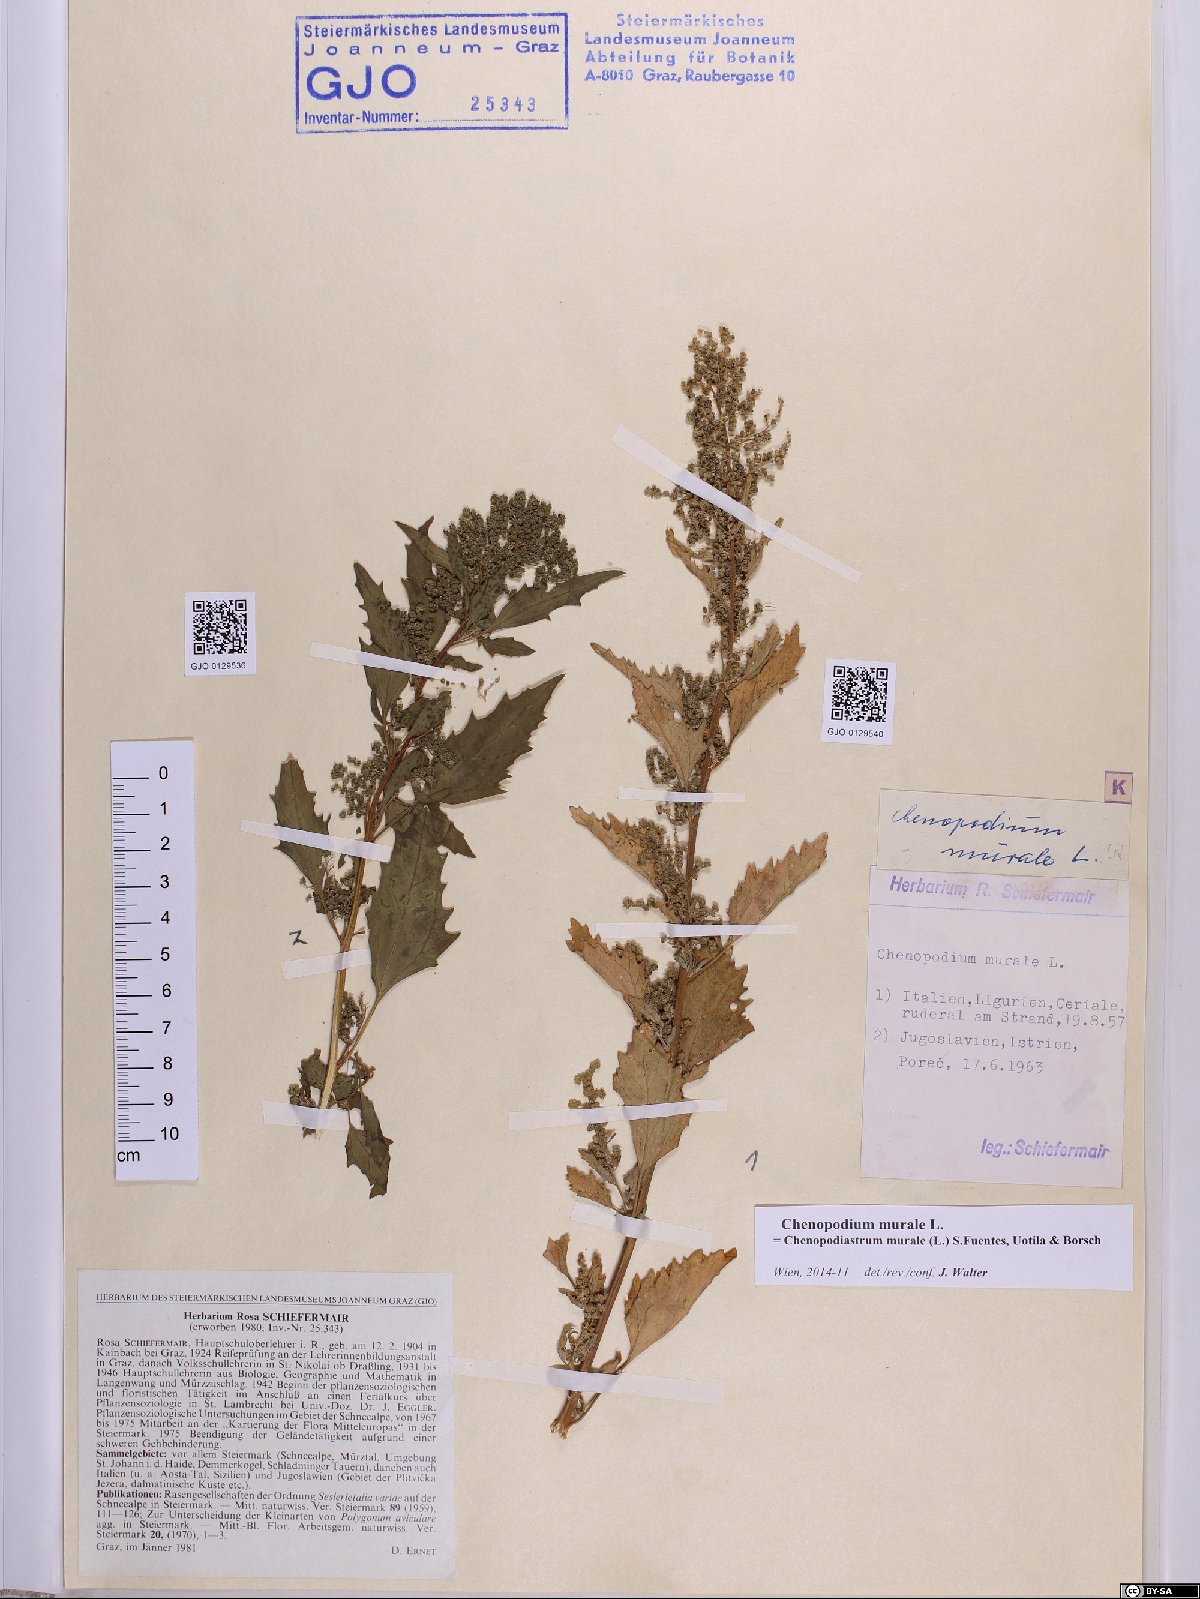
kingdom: Plantae
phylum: Tracheophyta
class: Magnoliopsida
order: Caryophyllales
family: Amaranthaceae
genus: Chenopodiastrum
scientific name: Chenopodiastrum murale
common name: Sowbane
